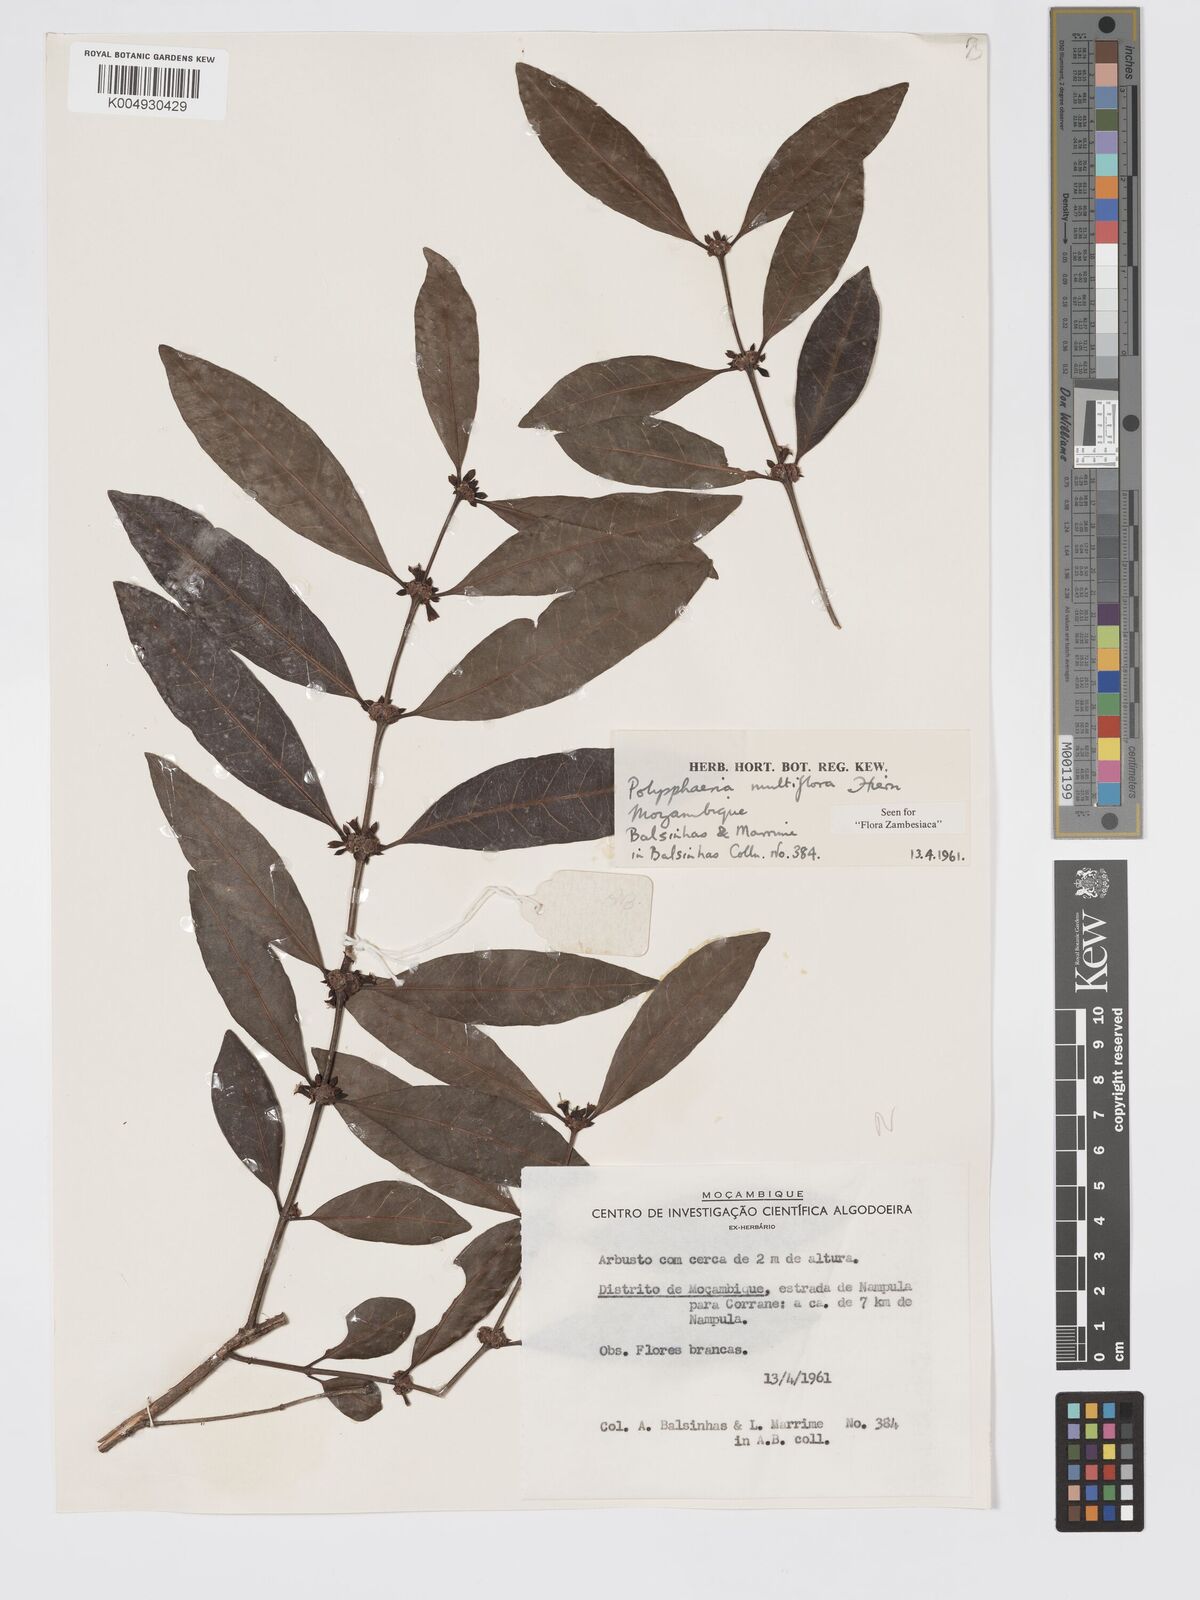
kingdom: Plantae
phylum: Tracheophyta
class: Magnoliopsida
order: Gentianales
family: Rubiaceae
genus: Polysphaeria
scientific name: Polysphaeria multiflora
